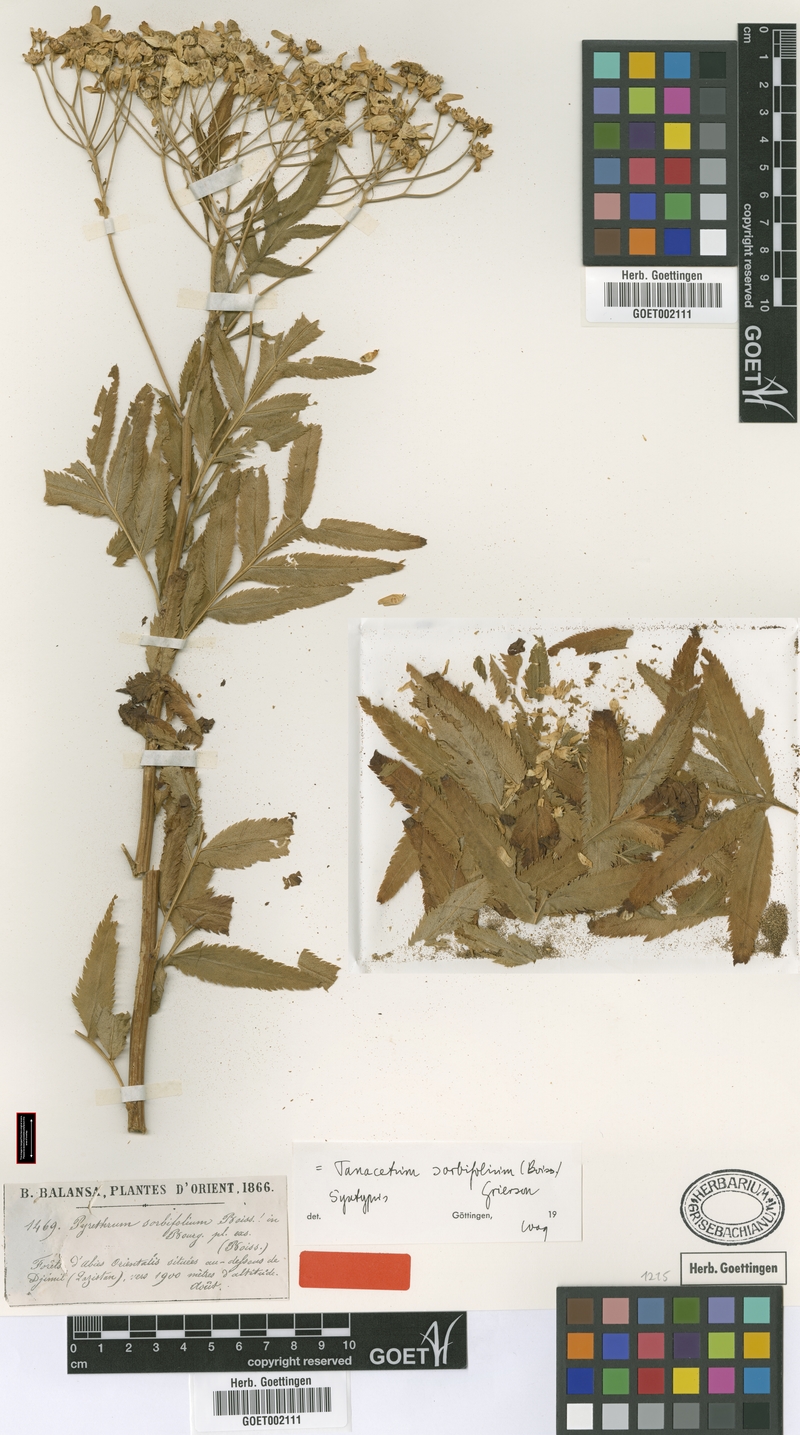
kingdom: Plantae
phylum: Tracheophyta
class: Magnoliopsida
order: Asterales
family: Asteraceae
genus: Tanacetum
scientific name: Tanacetum sorbifolium
